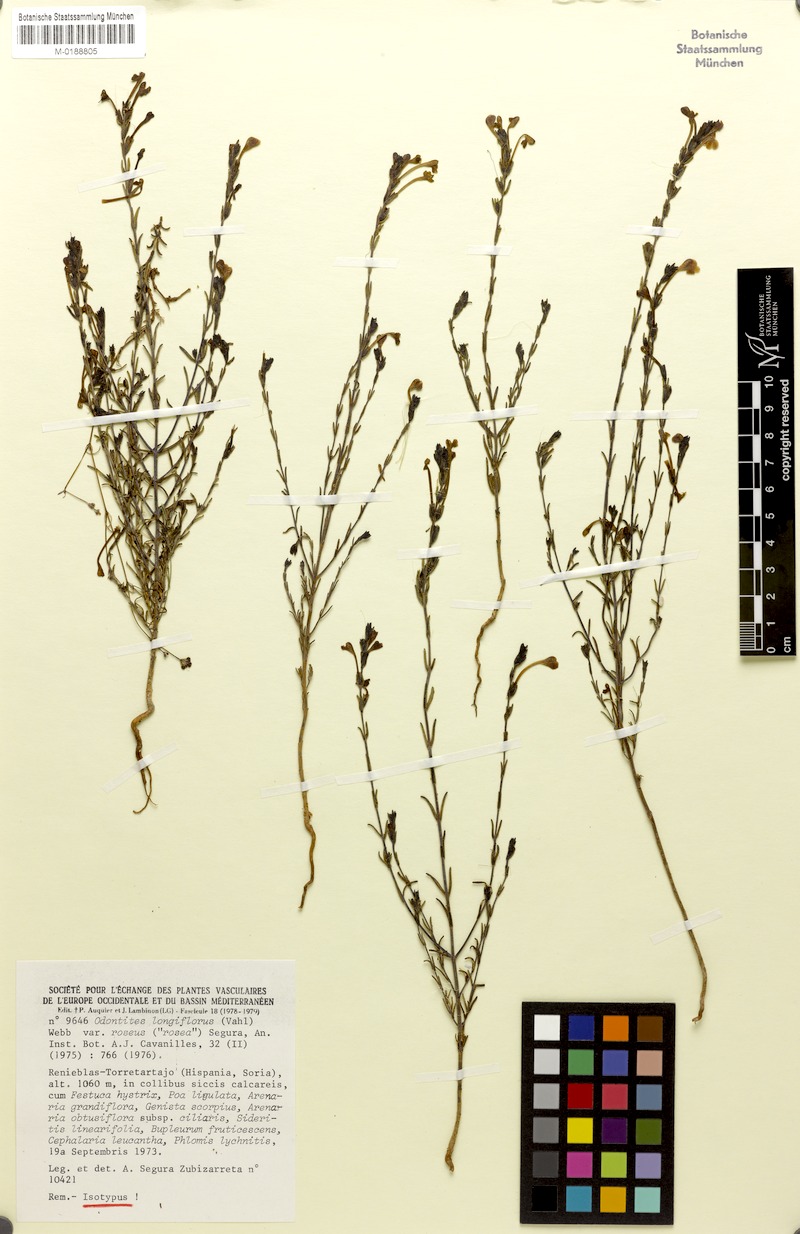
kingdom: Plantae
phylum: Tracheophyta
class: Magnoliopsida
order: Lamiales
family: Orobanchaceae
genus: Odontites
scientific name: Odontites longiflorus
